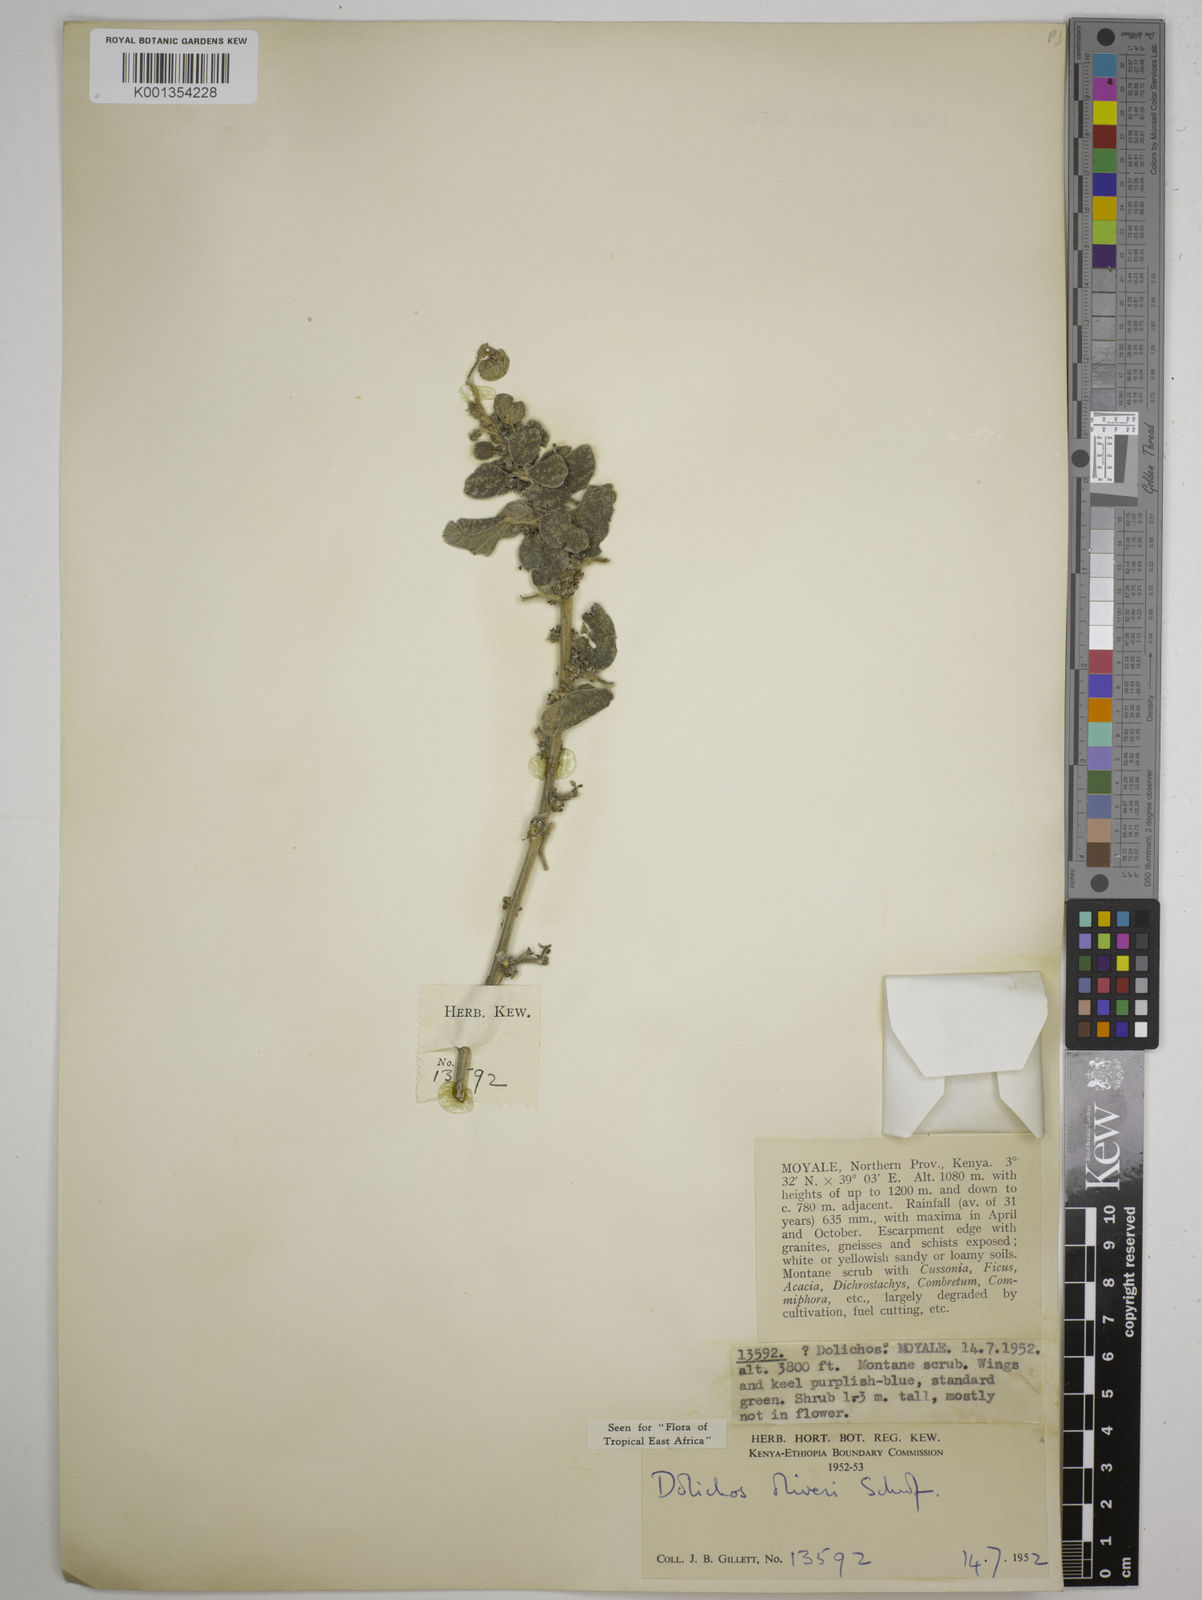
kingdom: Plantae
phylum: Tracheophyta
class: Magnoliopsida
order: Fabales
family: Fabaceae
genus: Dolichos
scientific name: Dolichos oliveri
